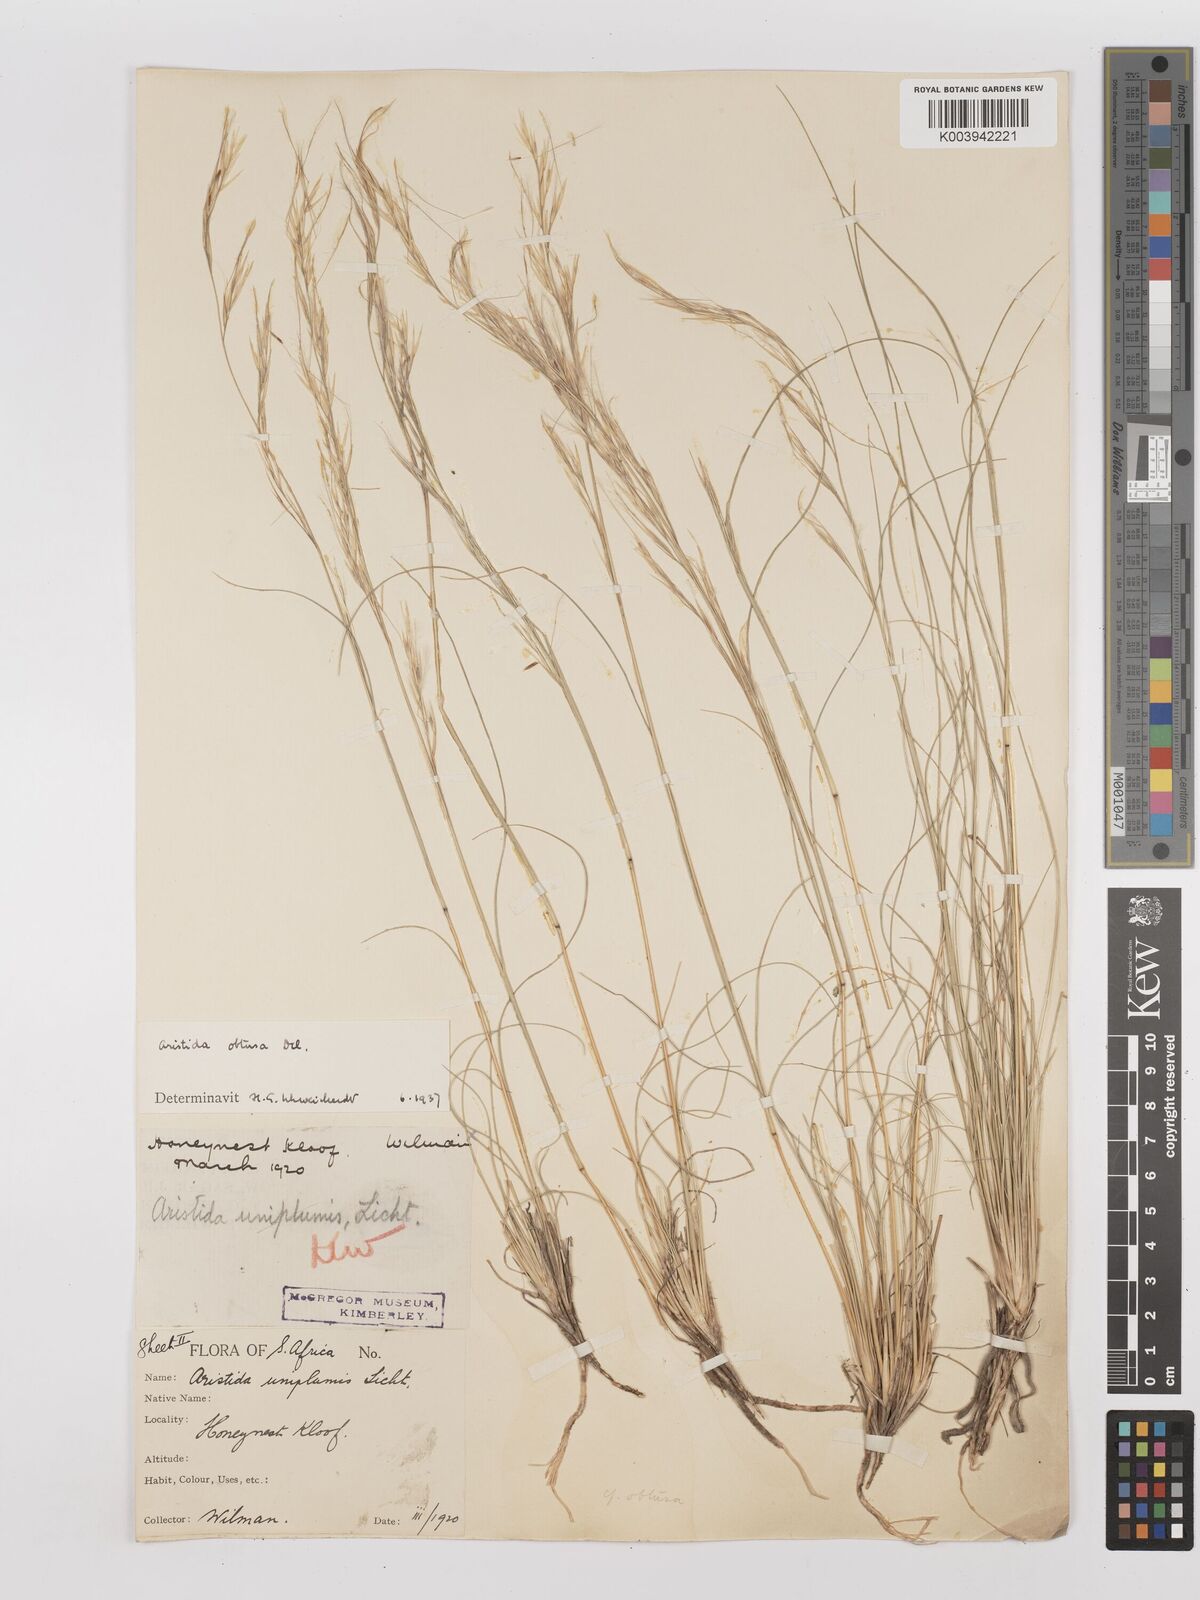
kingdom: Plantae
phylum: Tracheophyta
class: Liliopsida
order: Poales
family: Poaceae
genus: Stipagrostis
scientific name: Stipagrostis obtusa
